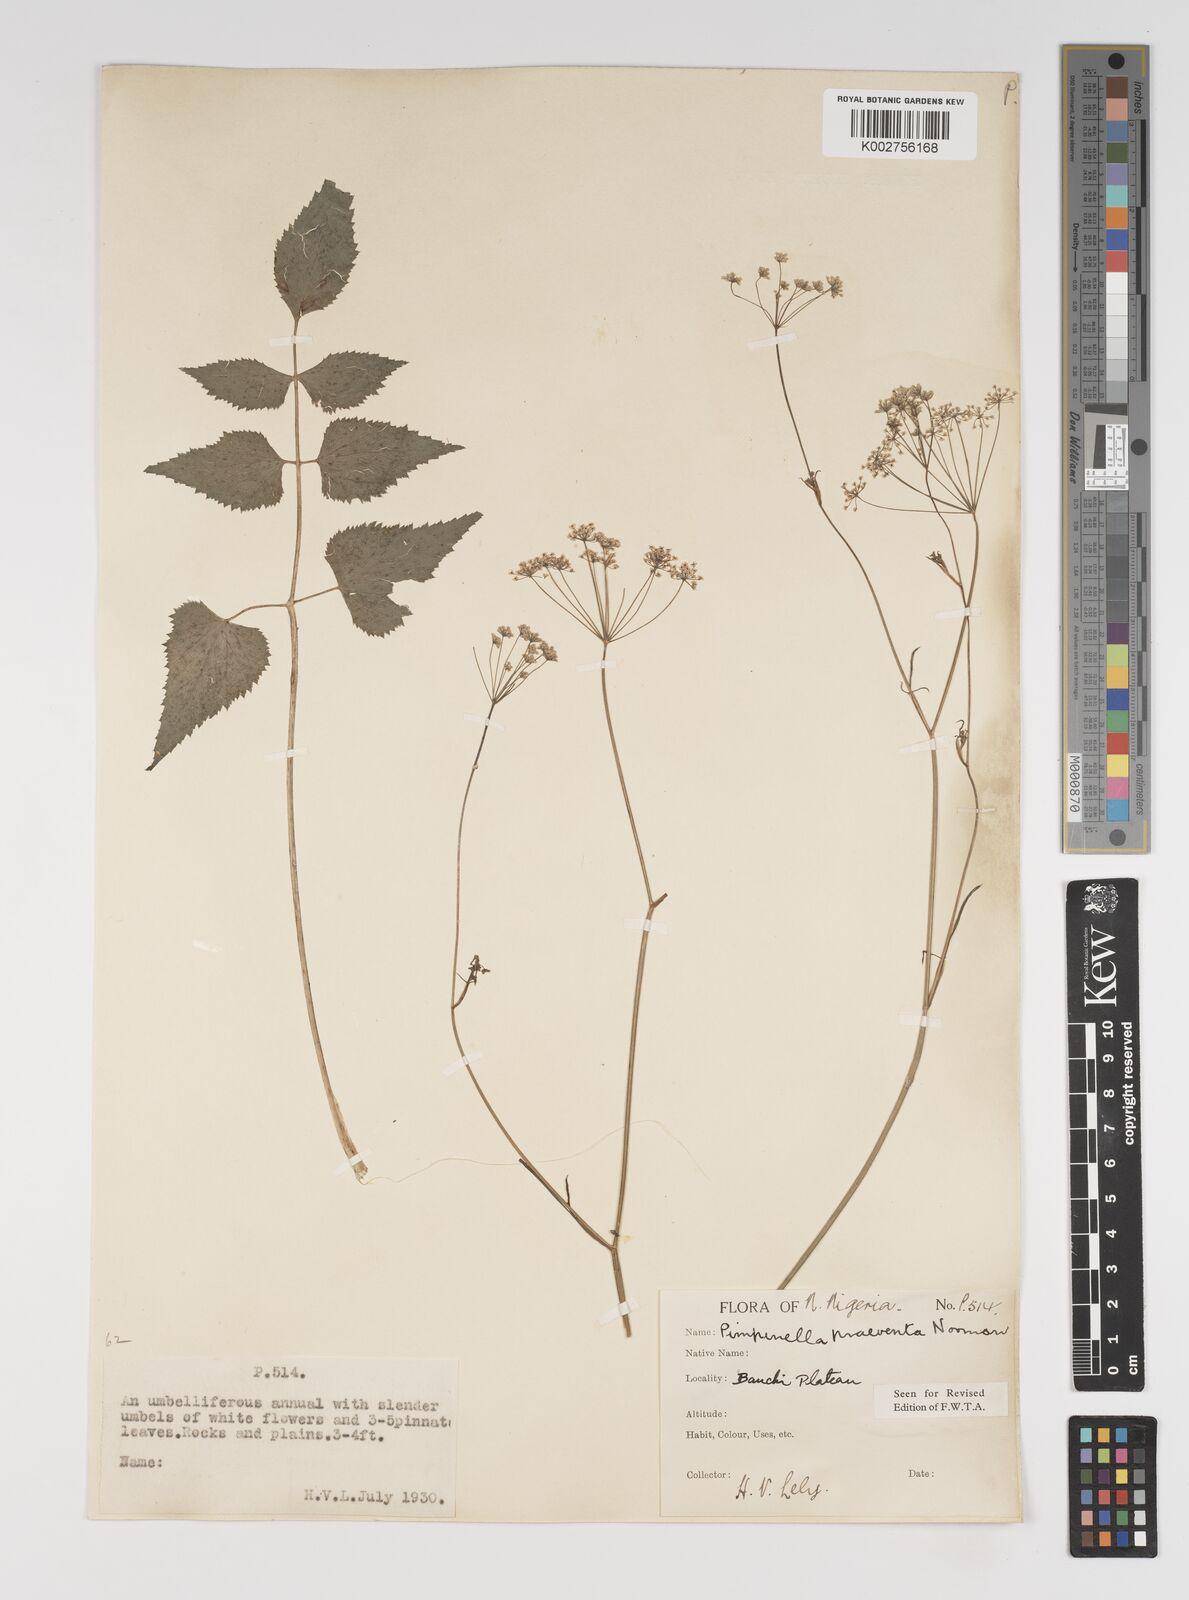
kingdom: Plantae
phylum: Tracheophyta
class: Magnoliopsida
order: Apiales
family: Apiaceae
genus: Pimpinella
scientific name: Pimpinella hirtella
